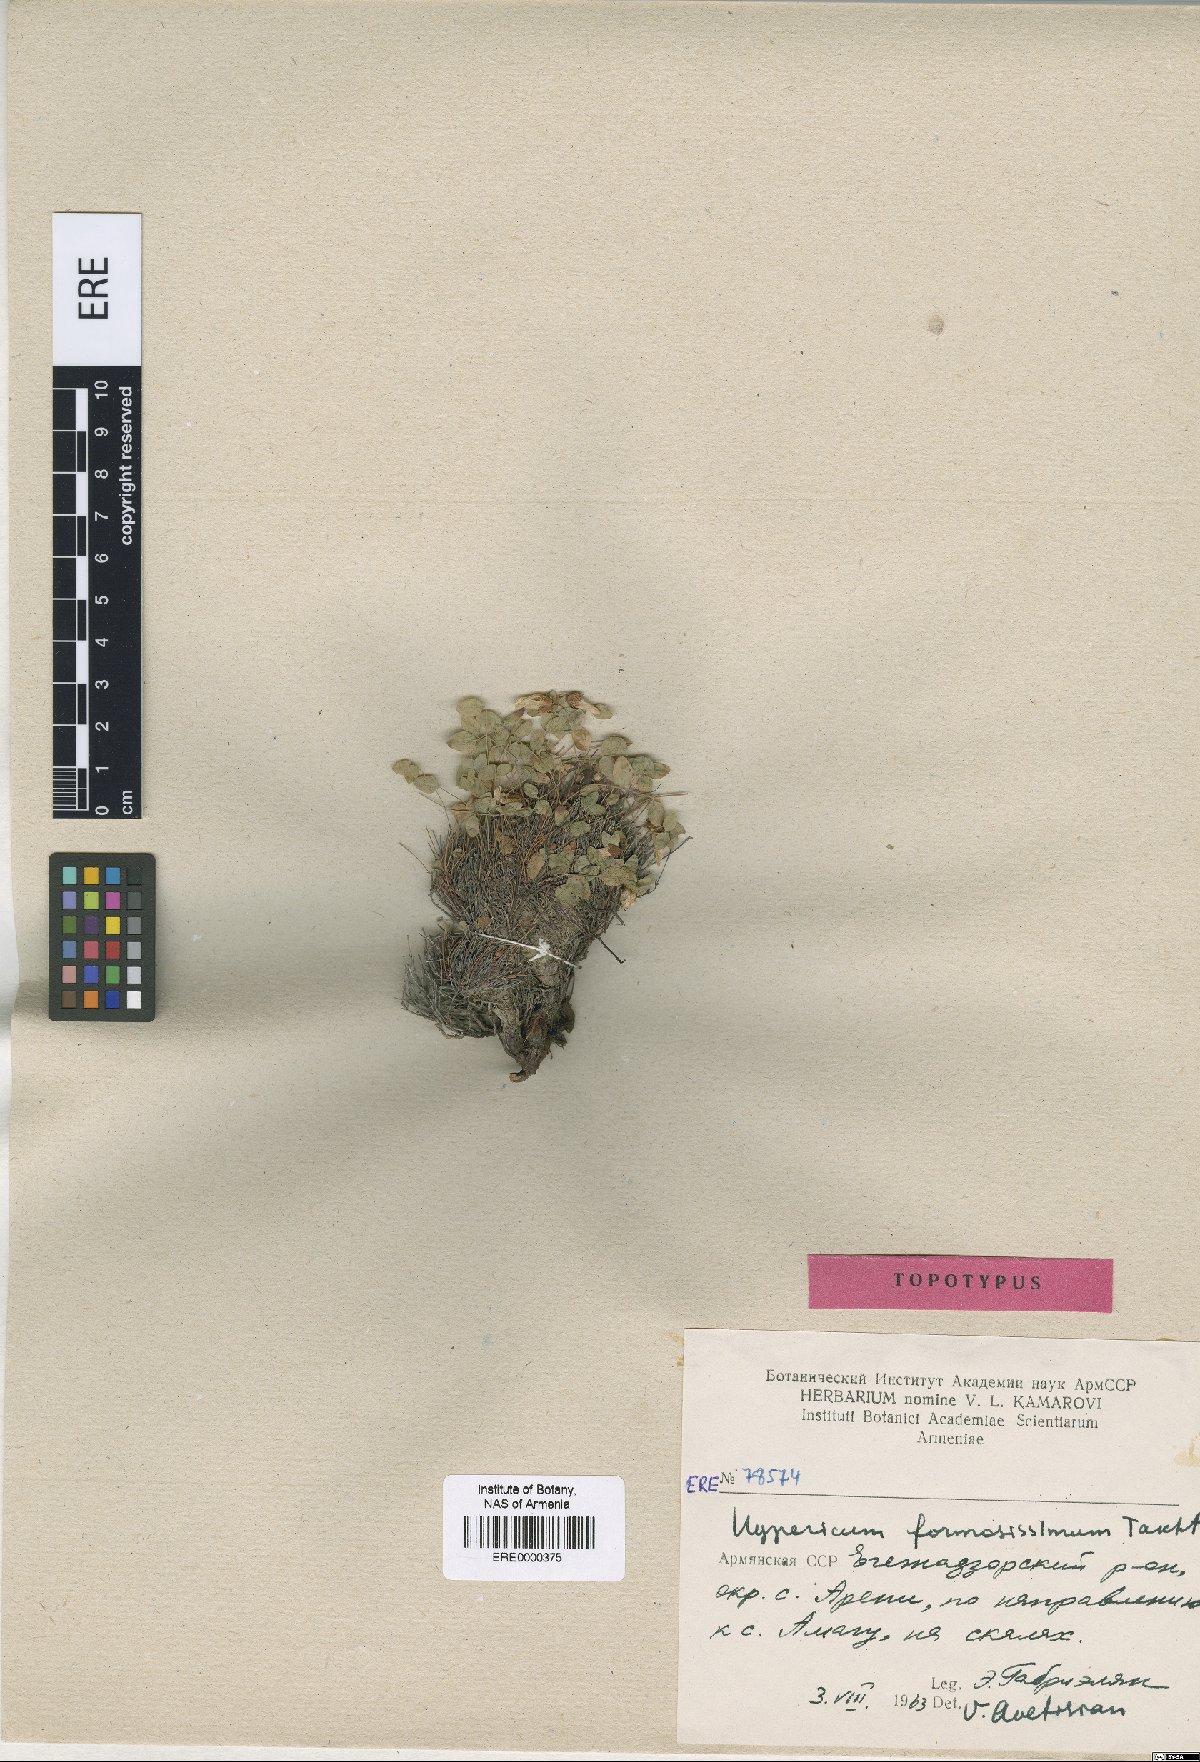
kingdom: Plantae
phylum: Tracheophyta
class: Magnoliopsida
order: Malpighiales
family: Hypericaceae
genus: Hypericum
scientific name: Hypericum formosissimum
